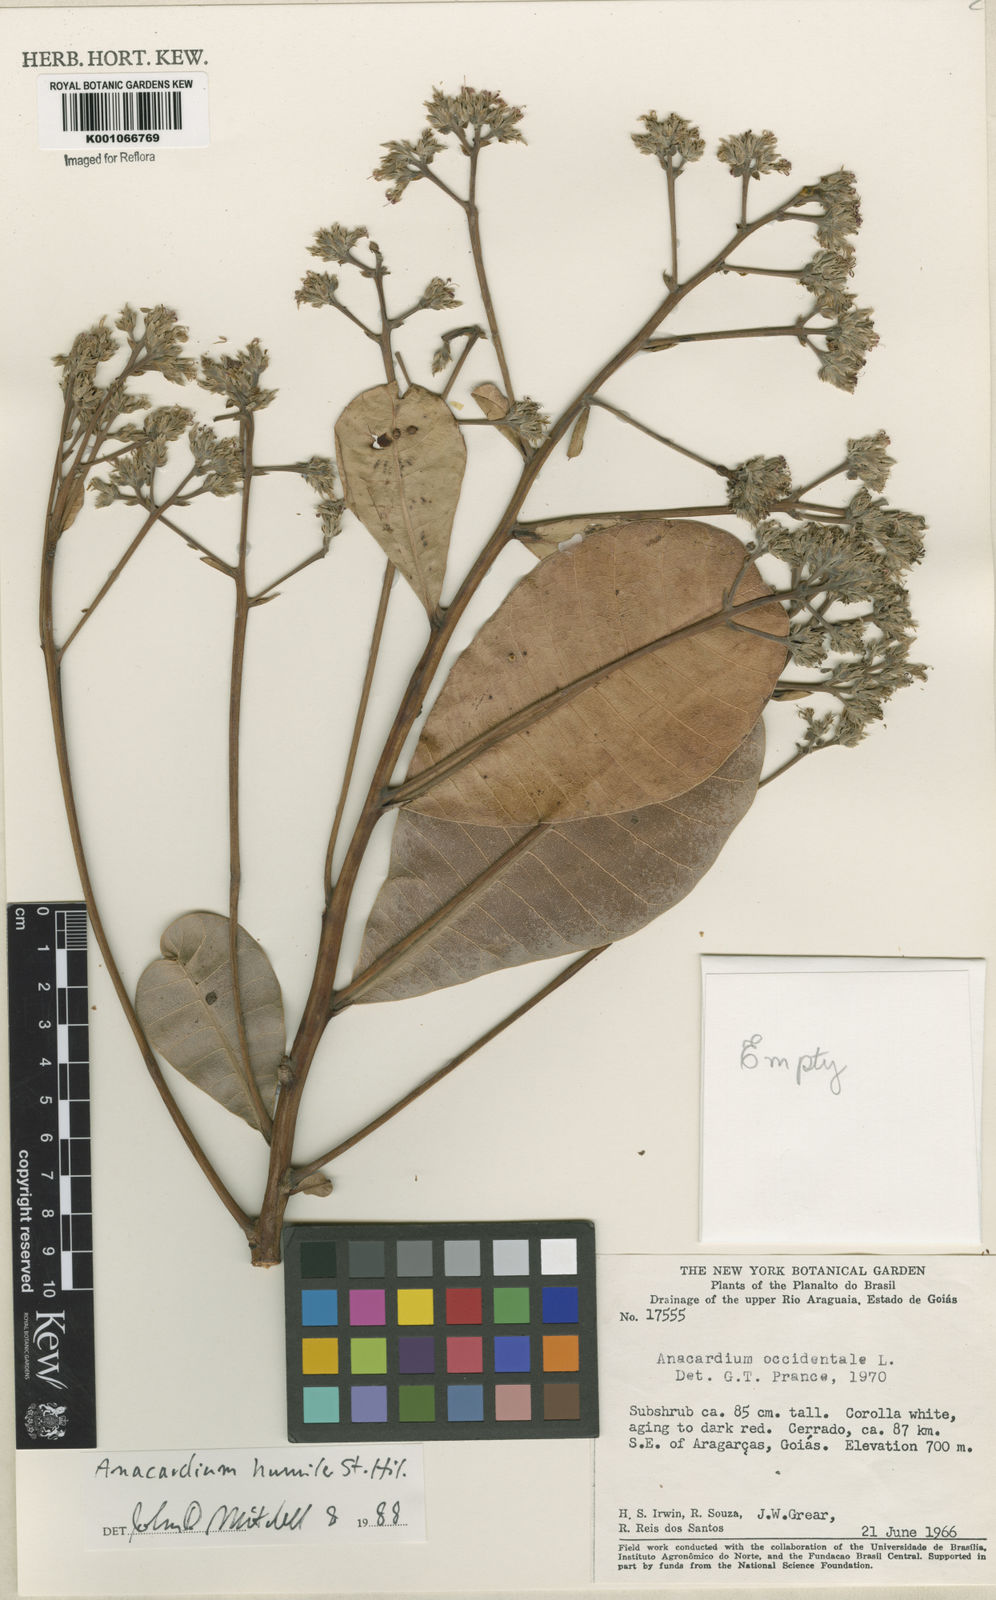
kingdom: Plantae
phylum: Tracheophyta
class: Magnoliopsida
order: Sapindales
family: Anacardiaceae
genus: Anacardium
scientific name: Anacardium humile
